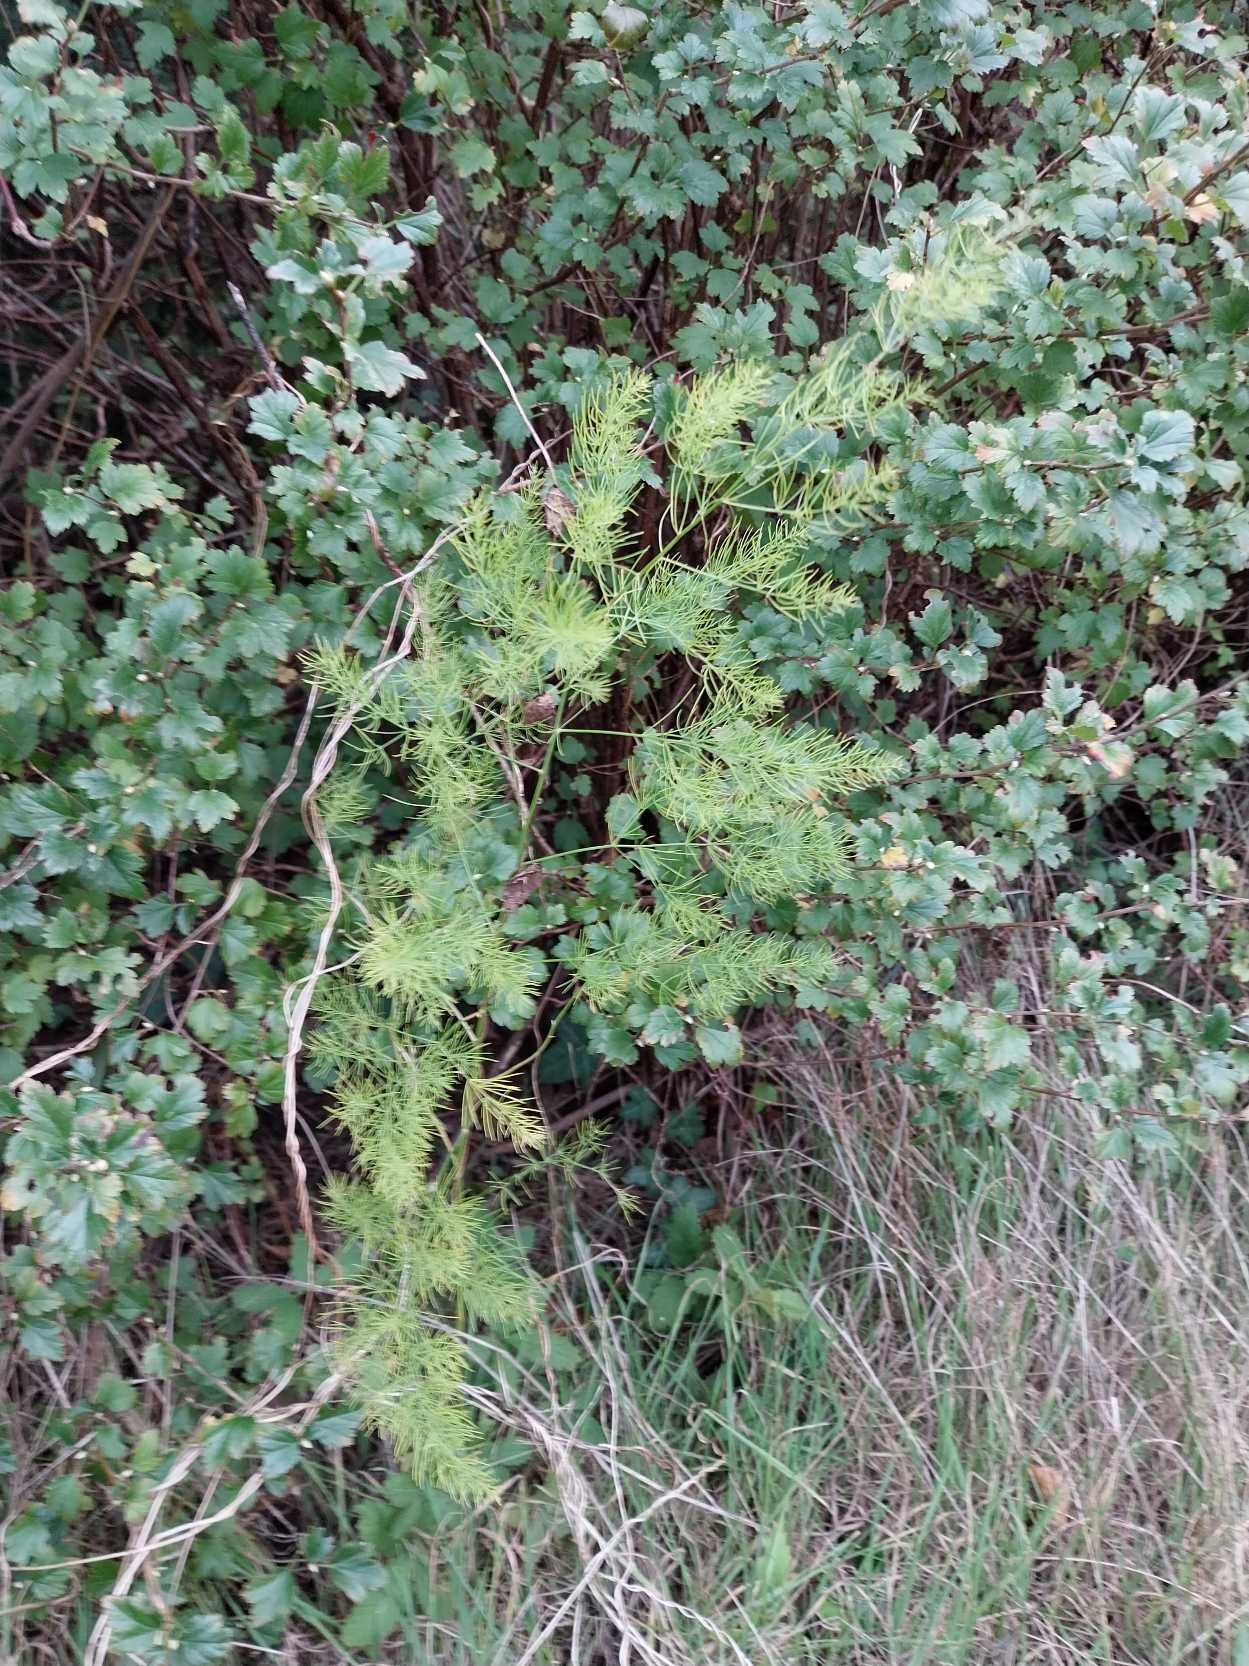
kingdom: Plantae
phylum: Tracheophyta
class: Liliopsida
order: Asparagales
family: Asparagaceae
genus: Asparagus
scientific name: Asparagus officinalis
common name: Asparges
